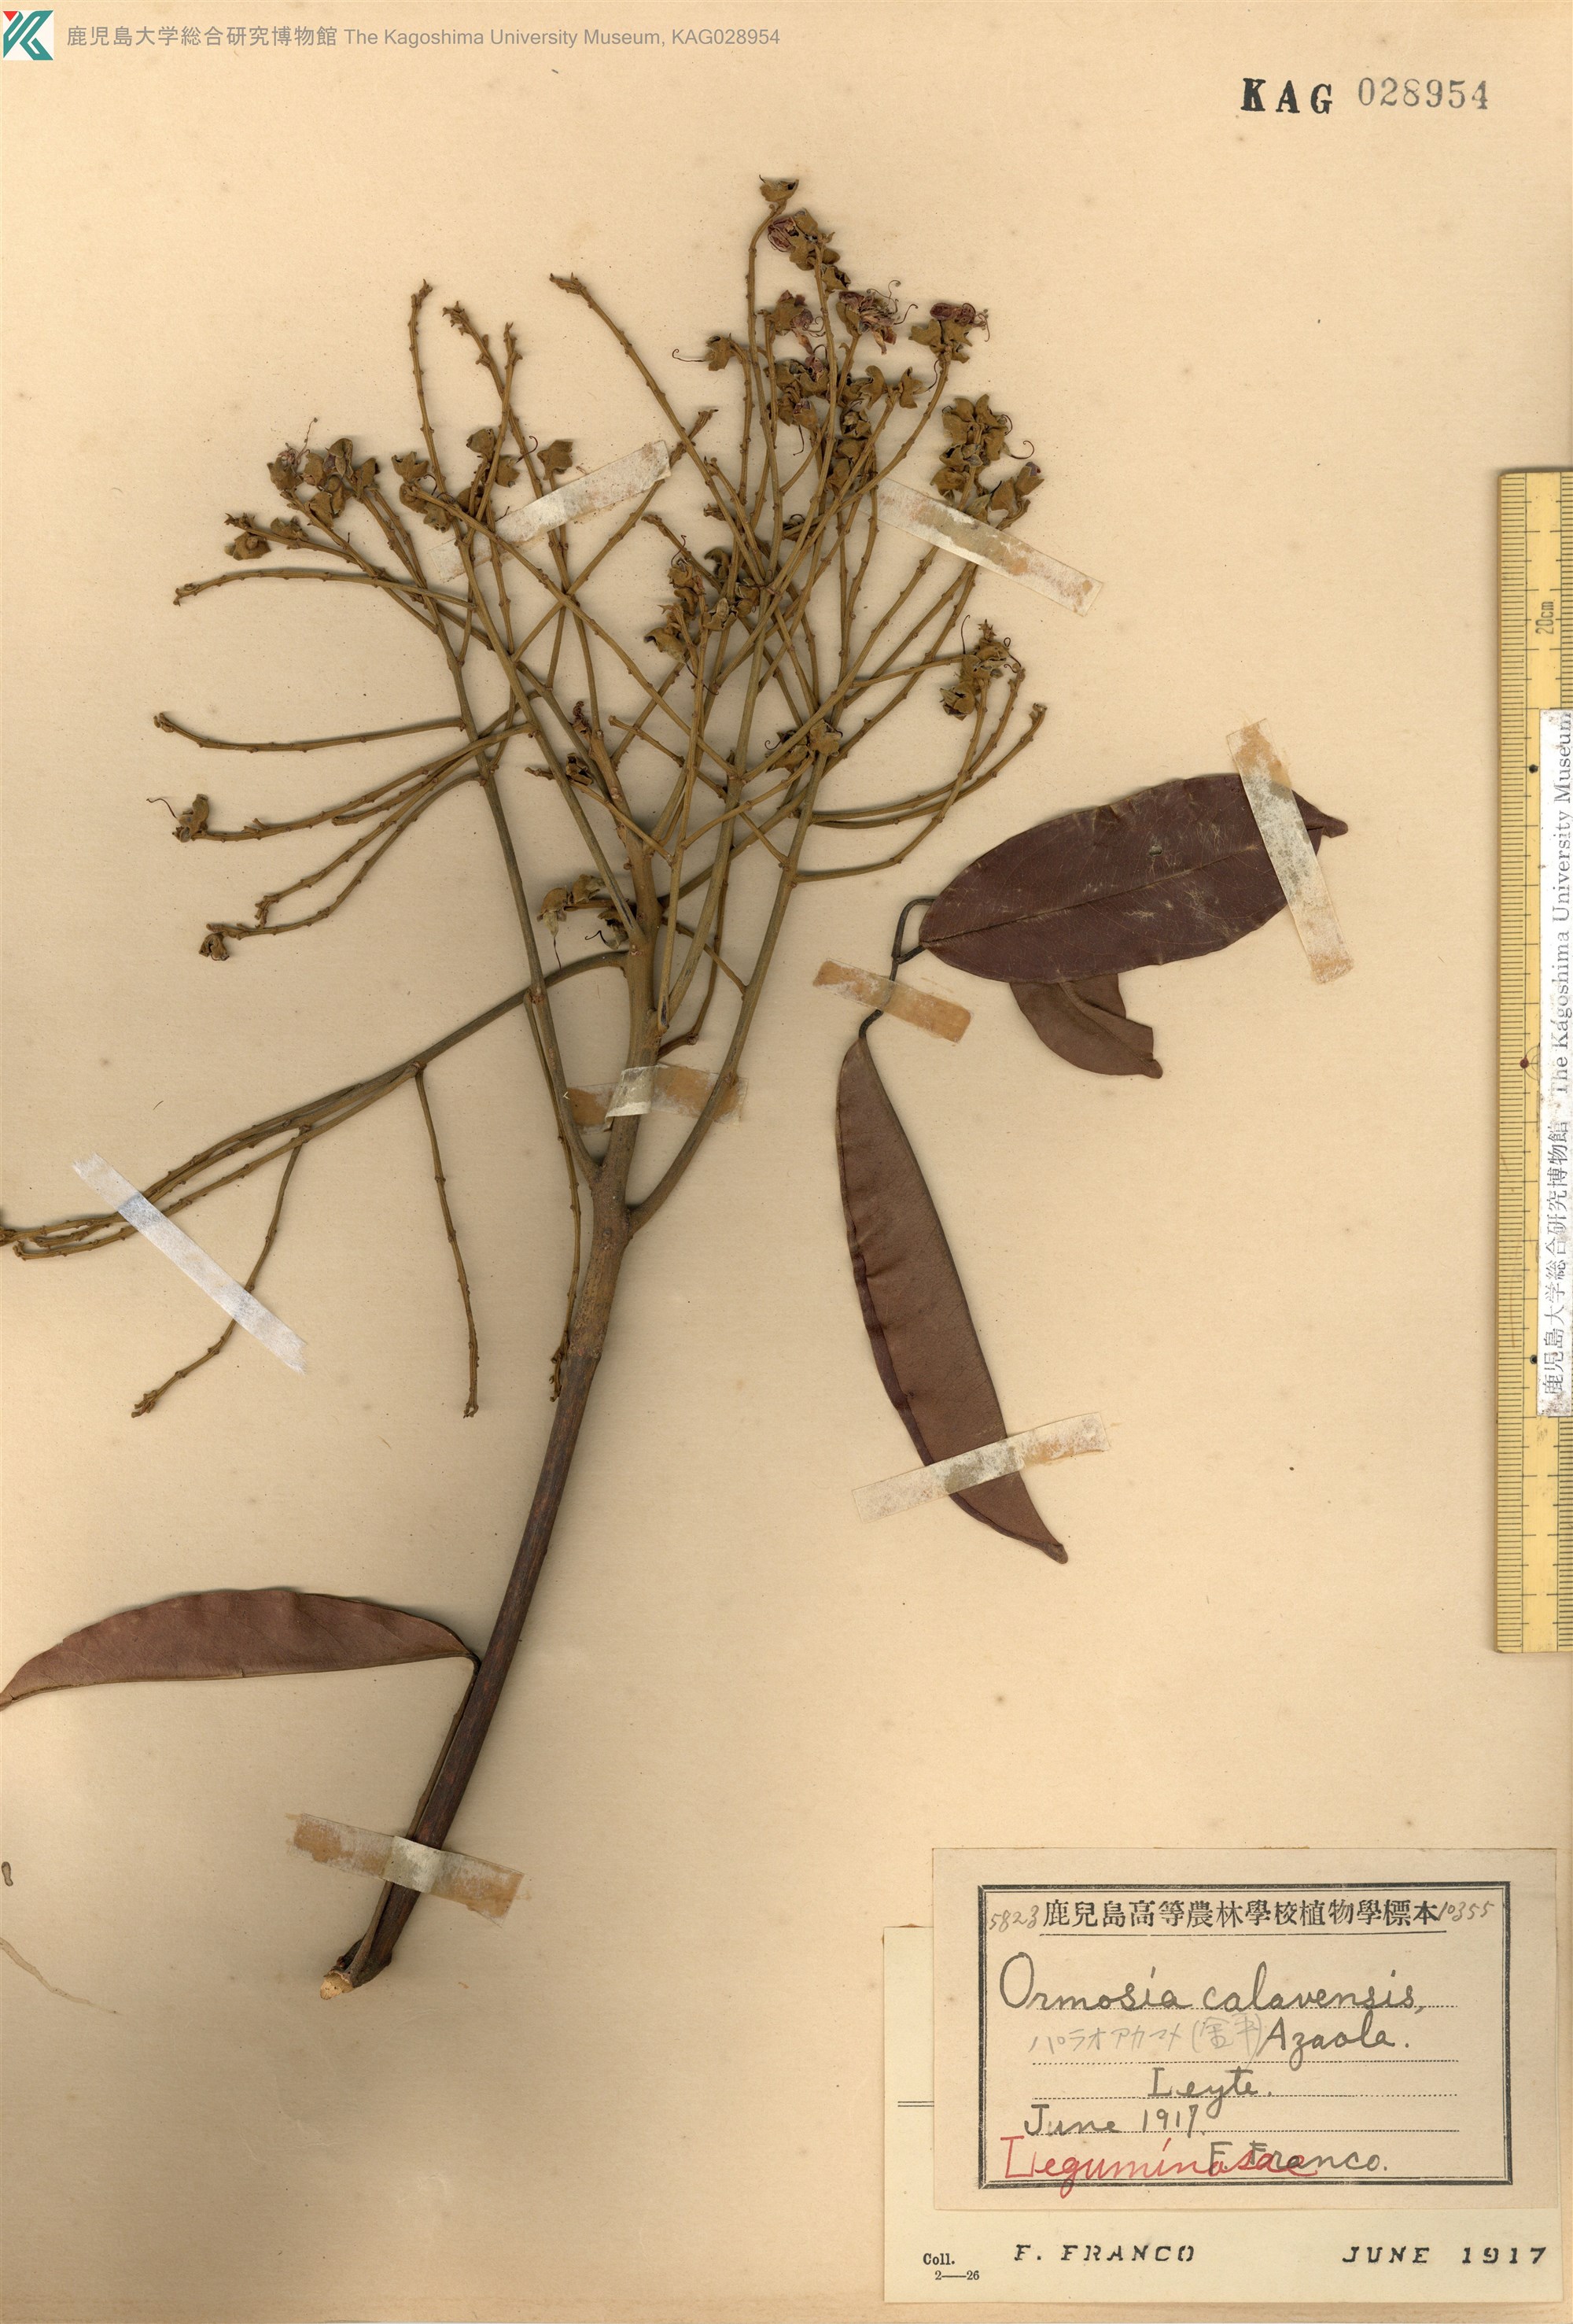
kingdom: Plantae
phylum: Tracheophyta
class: Magnoliopsida
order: Fabales
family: Fabaceae
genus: Ormosia
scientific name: Ormosia formosana
